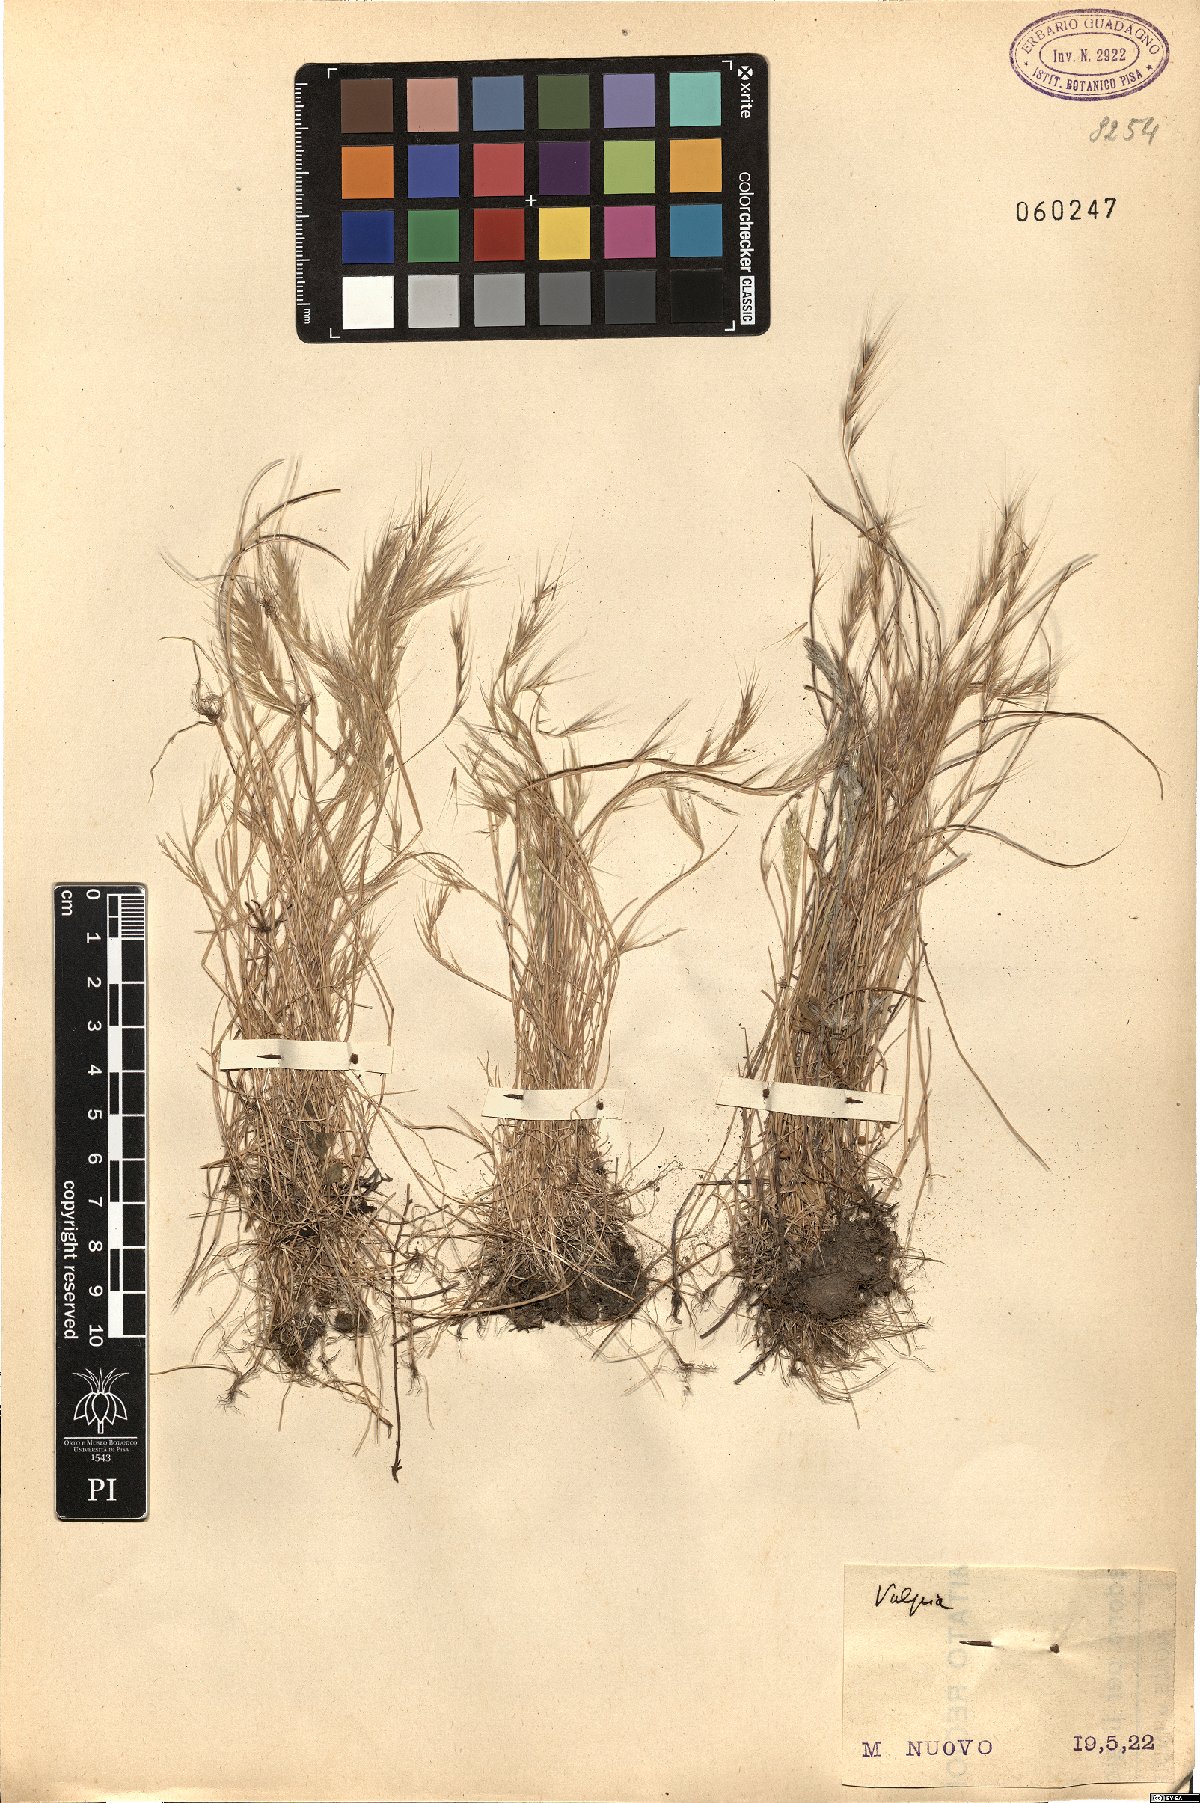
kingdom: Plantae
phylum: Tracheophyta
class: Liliopsida
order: Poales
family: Poaceae
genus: Festuca
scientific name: Festuca
